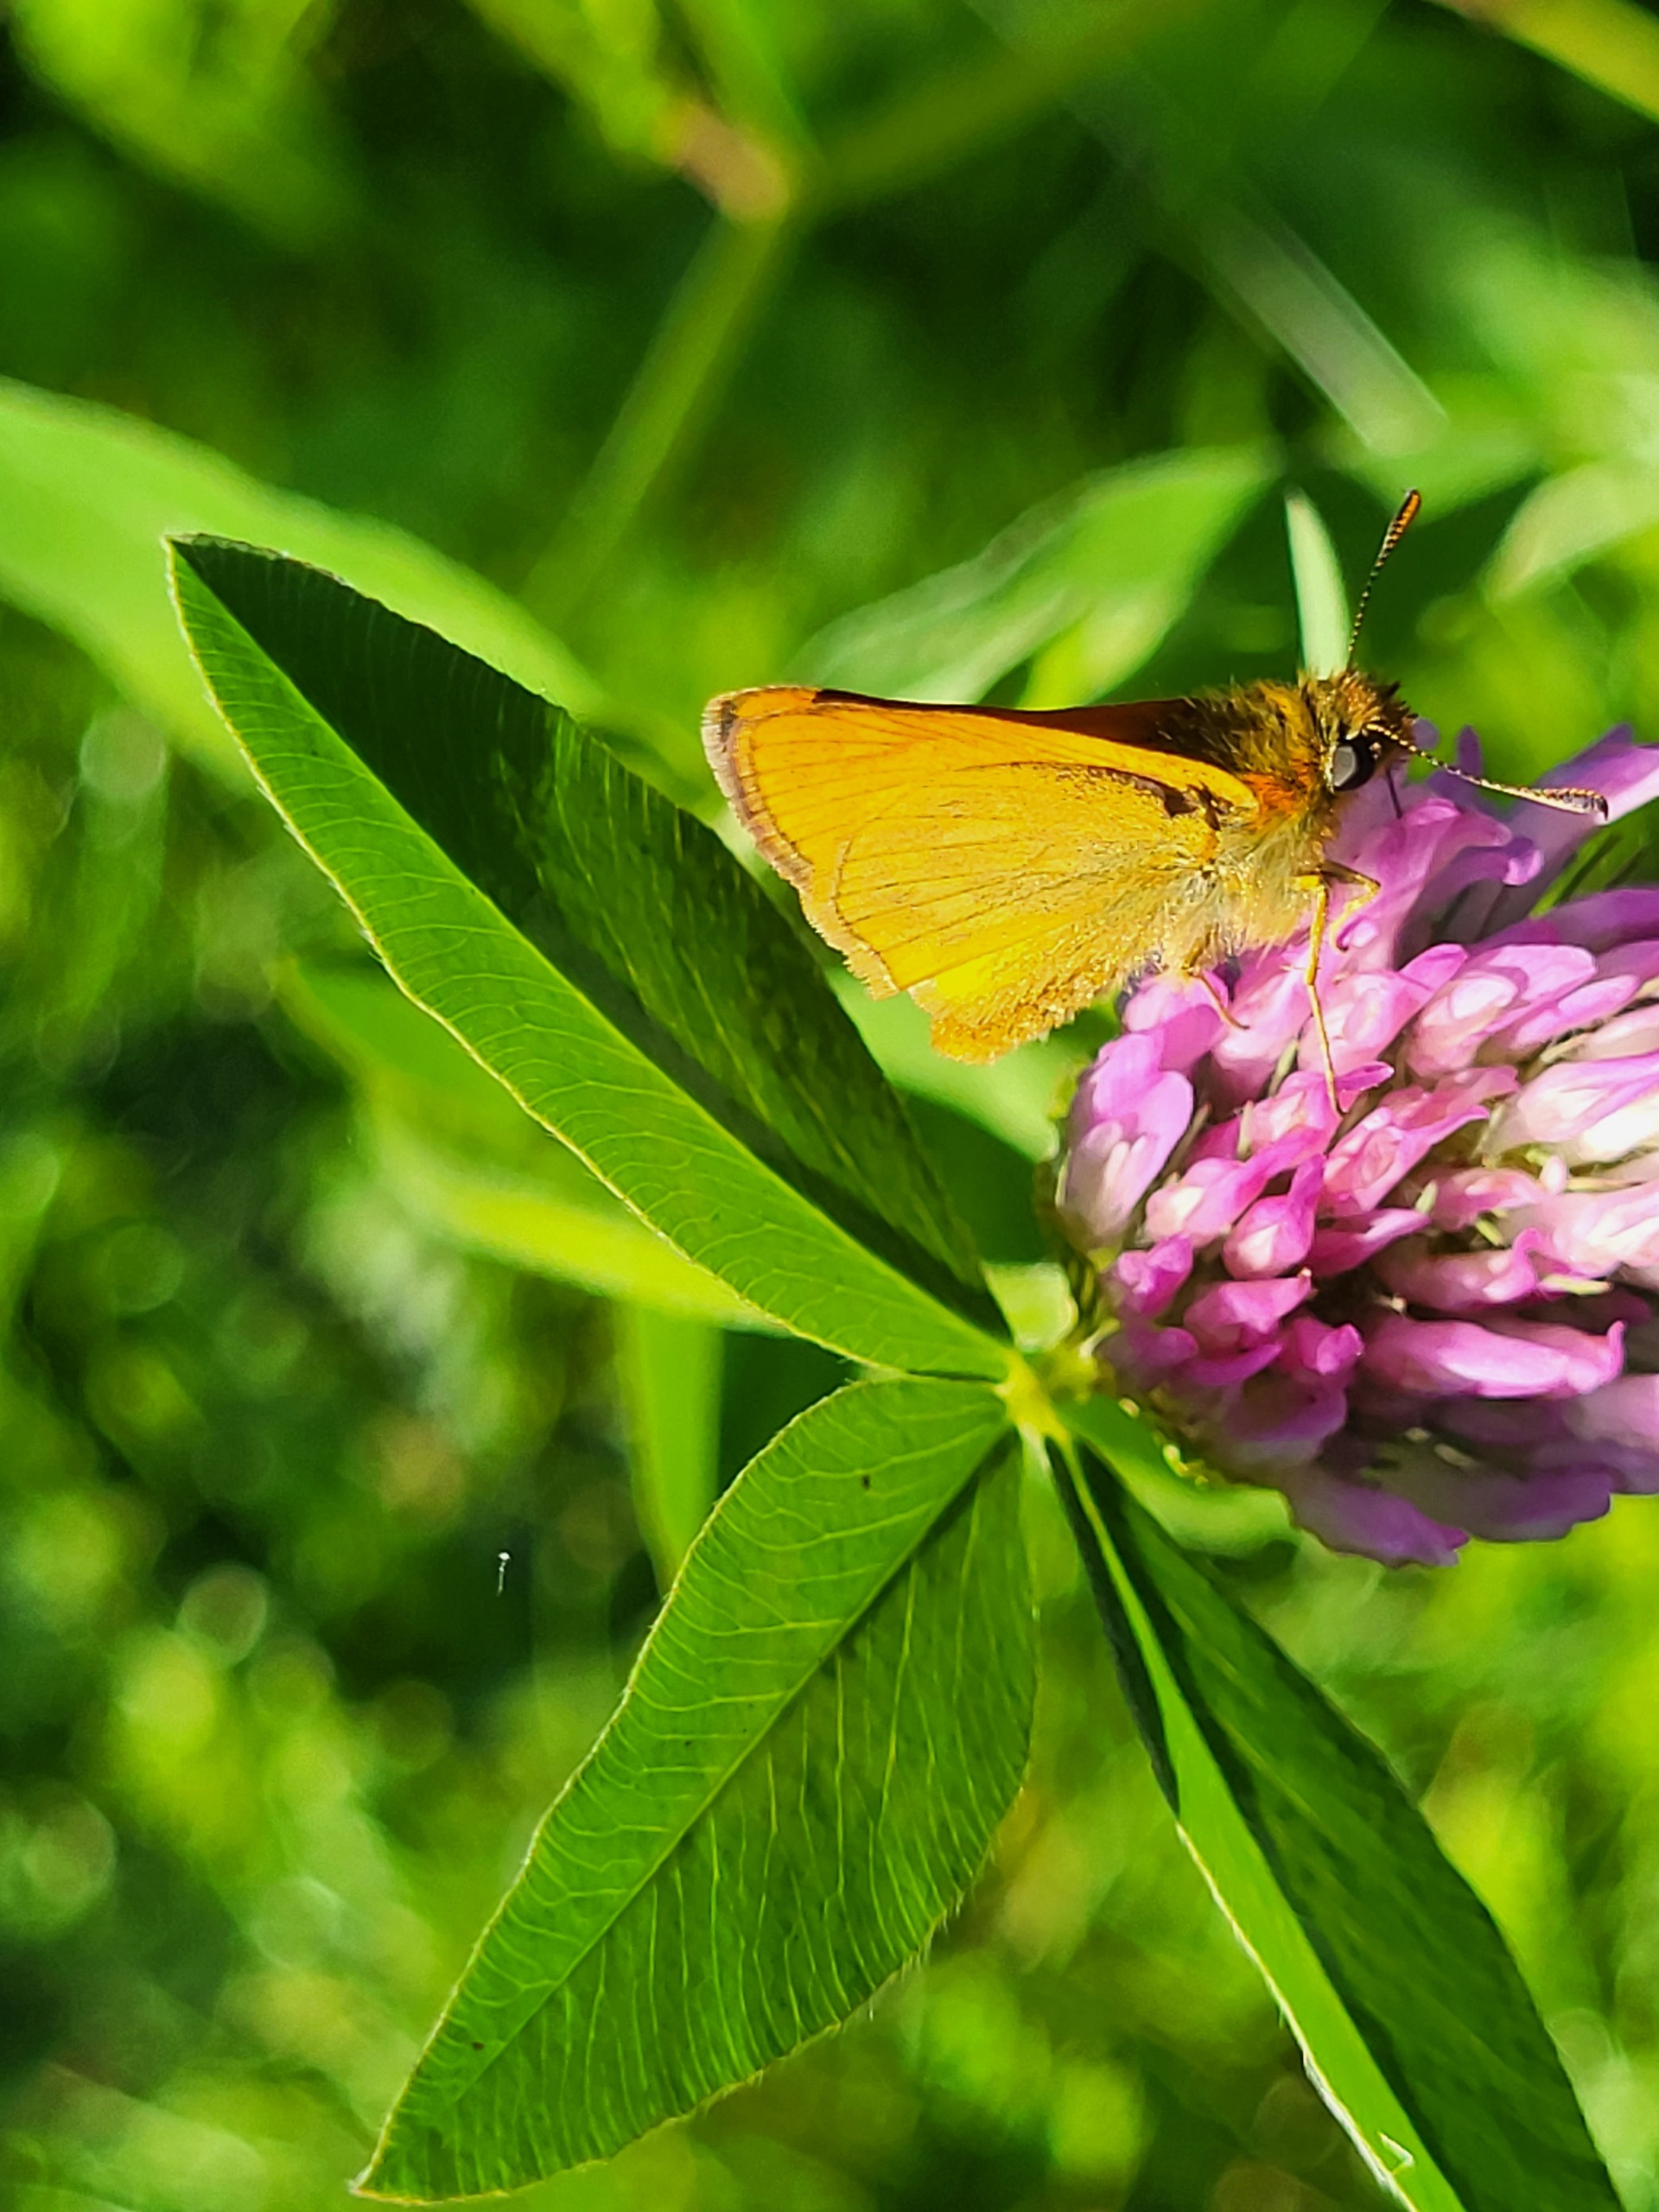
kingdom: Animalia
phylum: Arthropoda
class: Insecta
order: Lepidoptera
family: Hesperiidae
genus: Thymelicus
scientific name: Thymelicus sylvestris
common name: Skråstregbredpande
